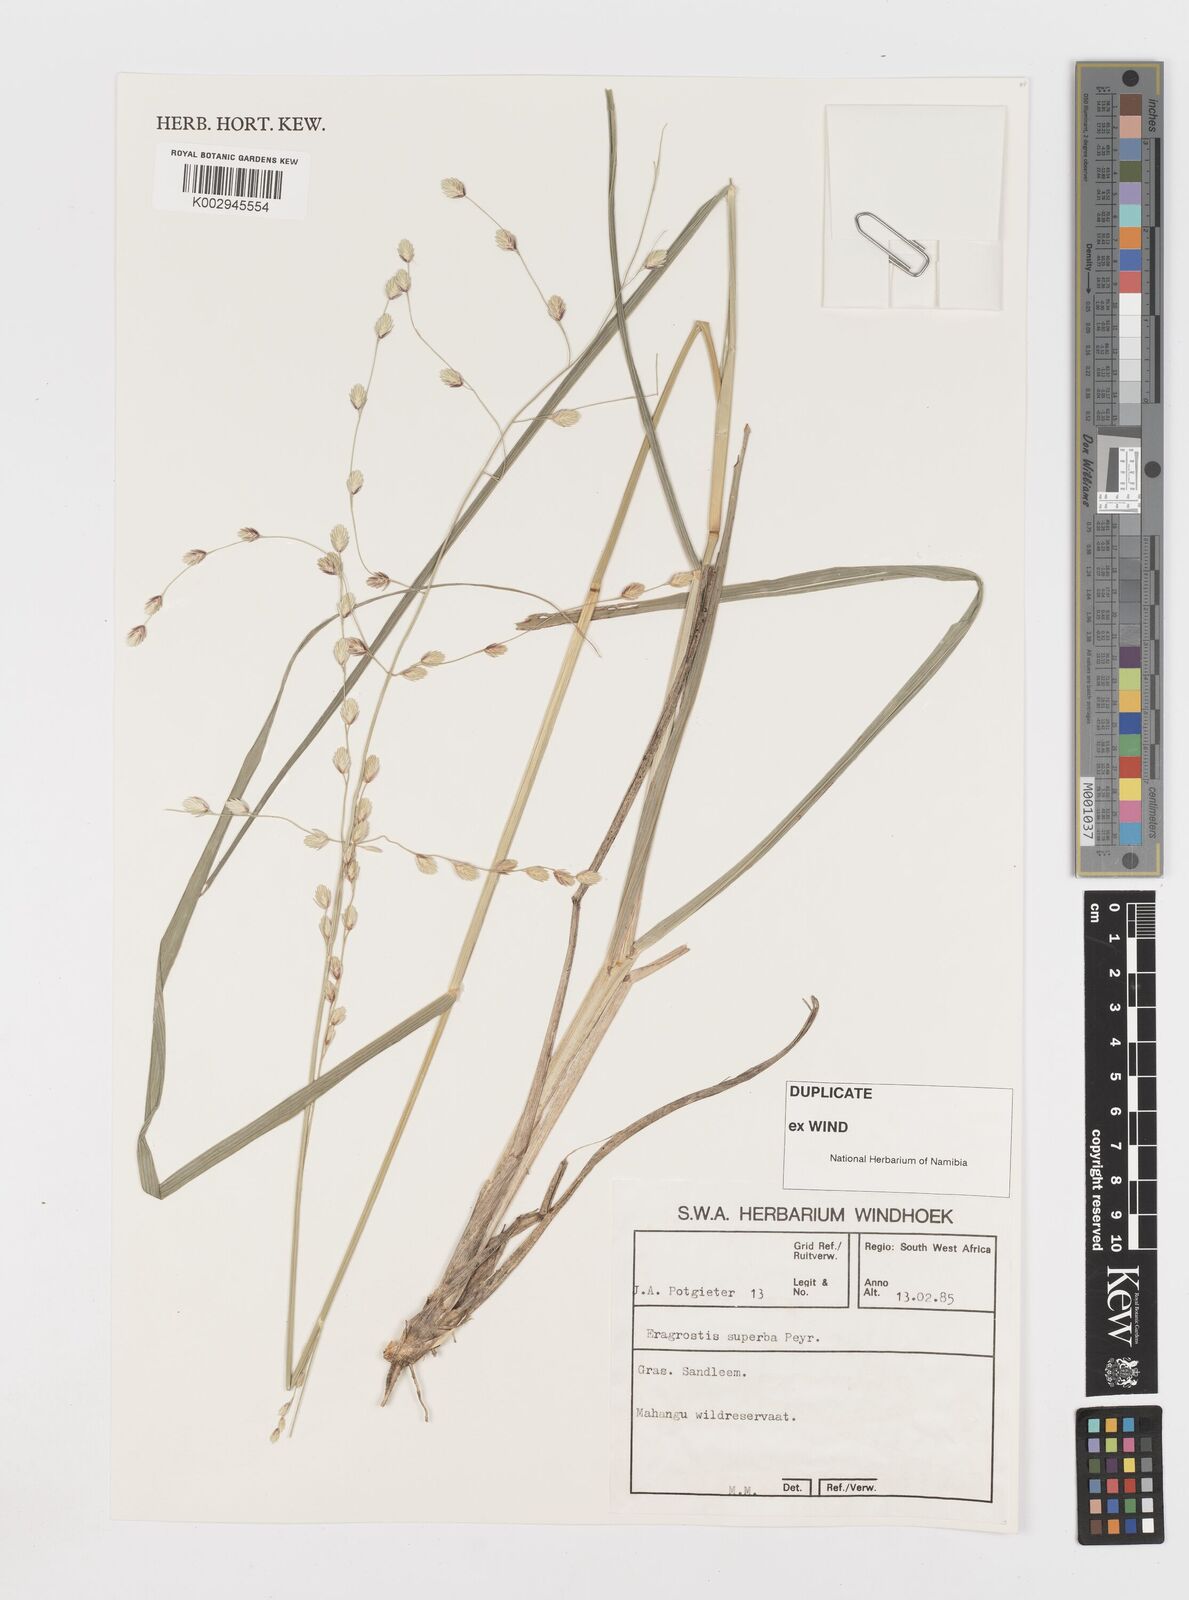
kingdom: Plantae
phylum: Tracheophyta
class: Liliopsida
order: Poales
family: Poaceae
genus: Eragrostis
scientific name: Eragrostis superba
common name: Wilman lovegrass
